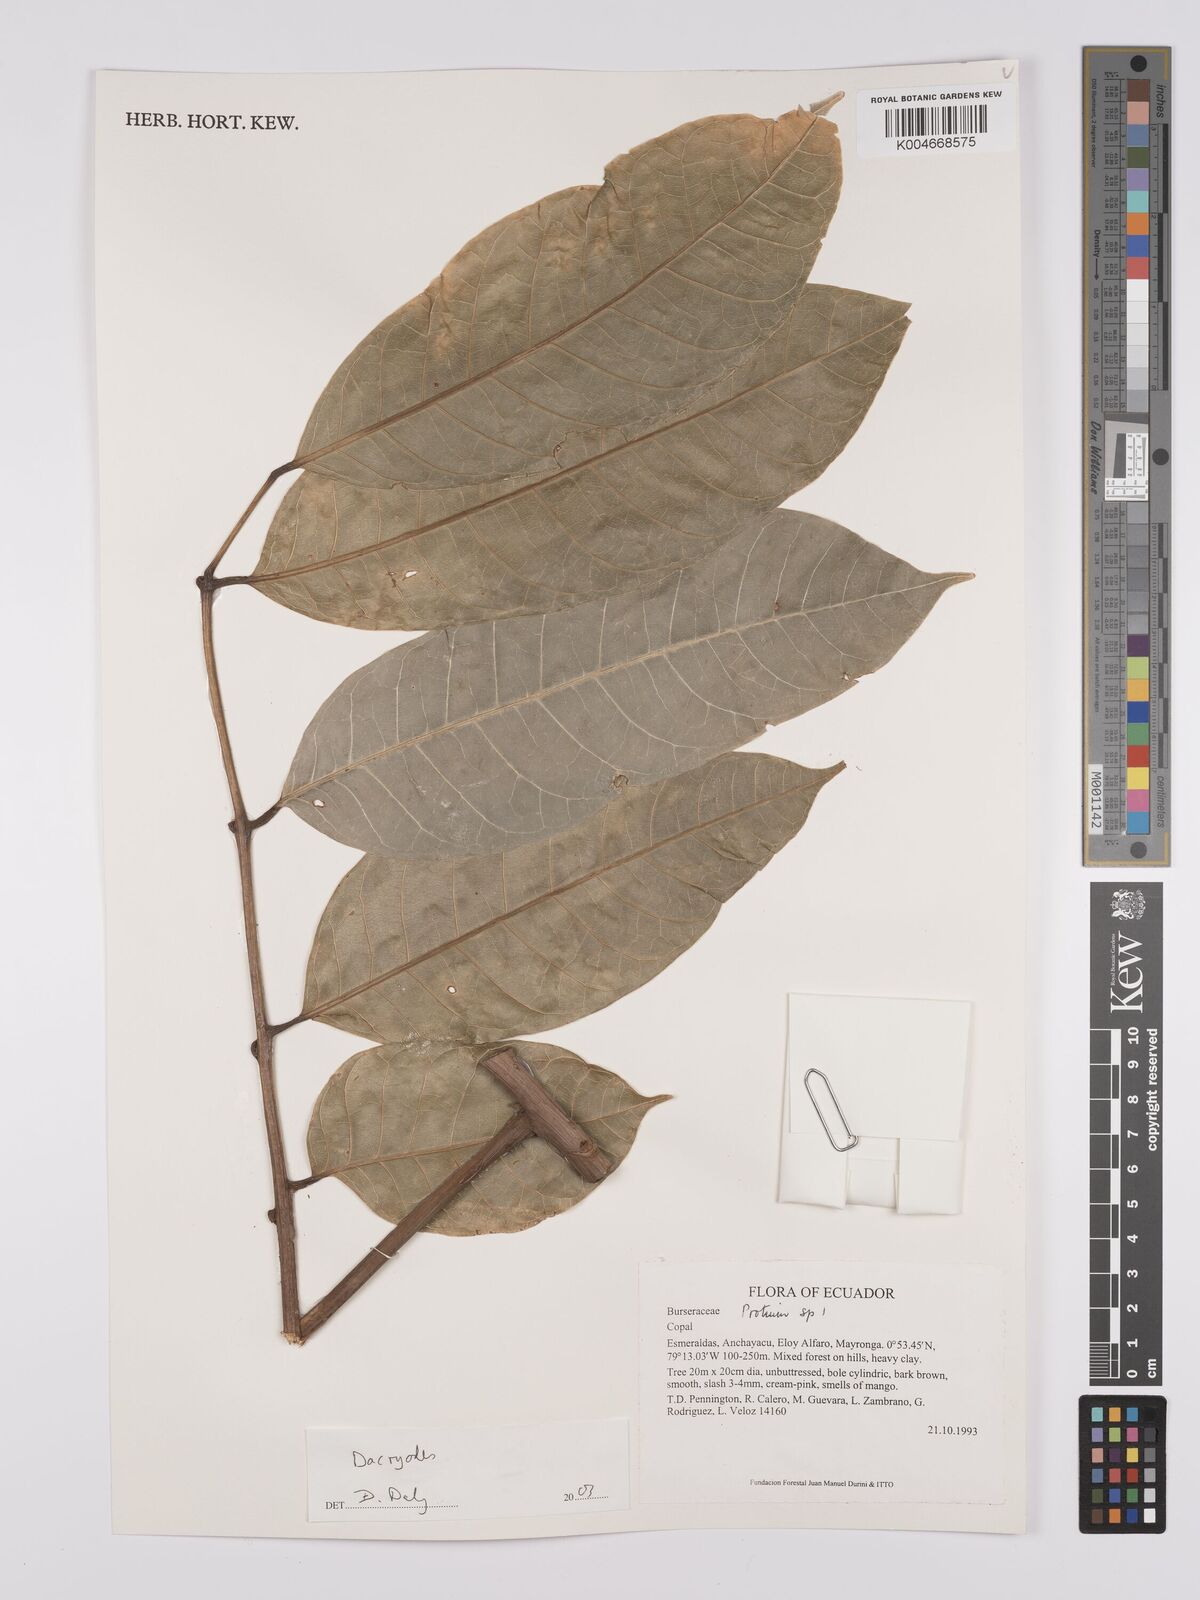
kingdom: Plantae
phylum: Tracheophyta
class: Magnoliopsida
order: Sapindales
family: Burseraceae
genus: Dacryodes
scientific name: Dacryodes
